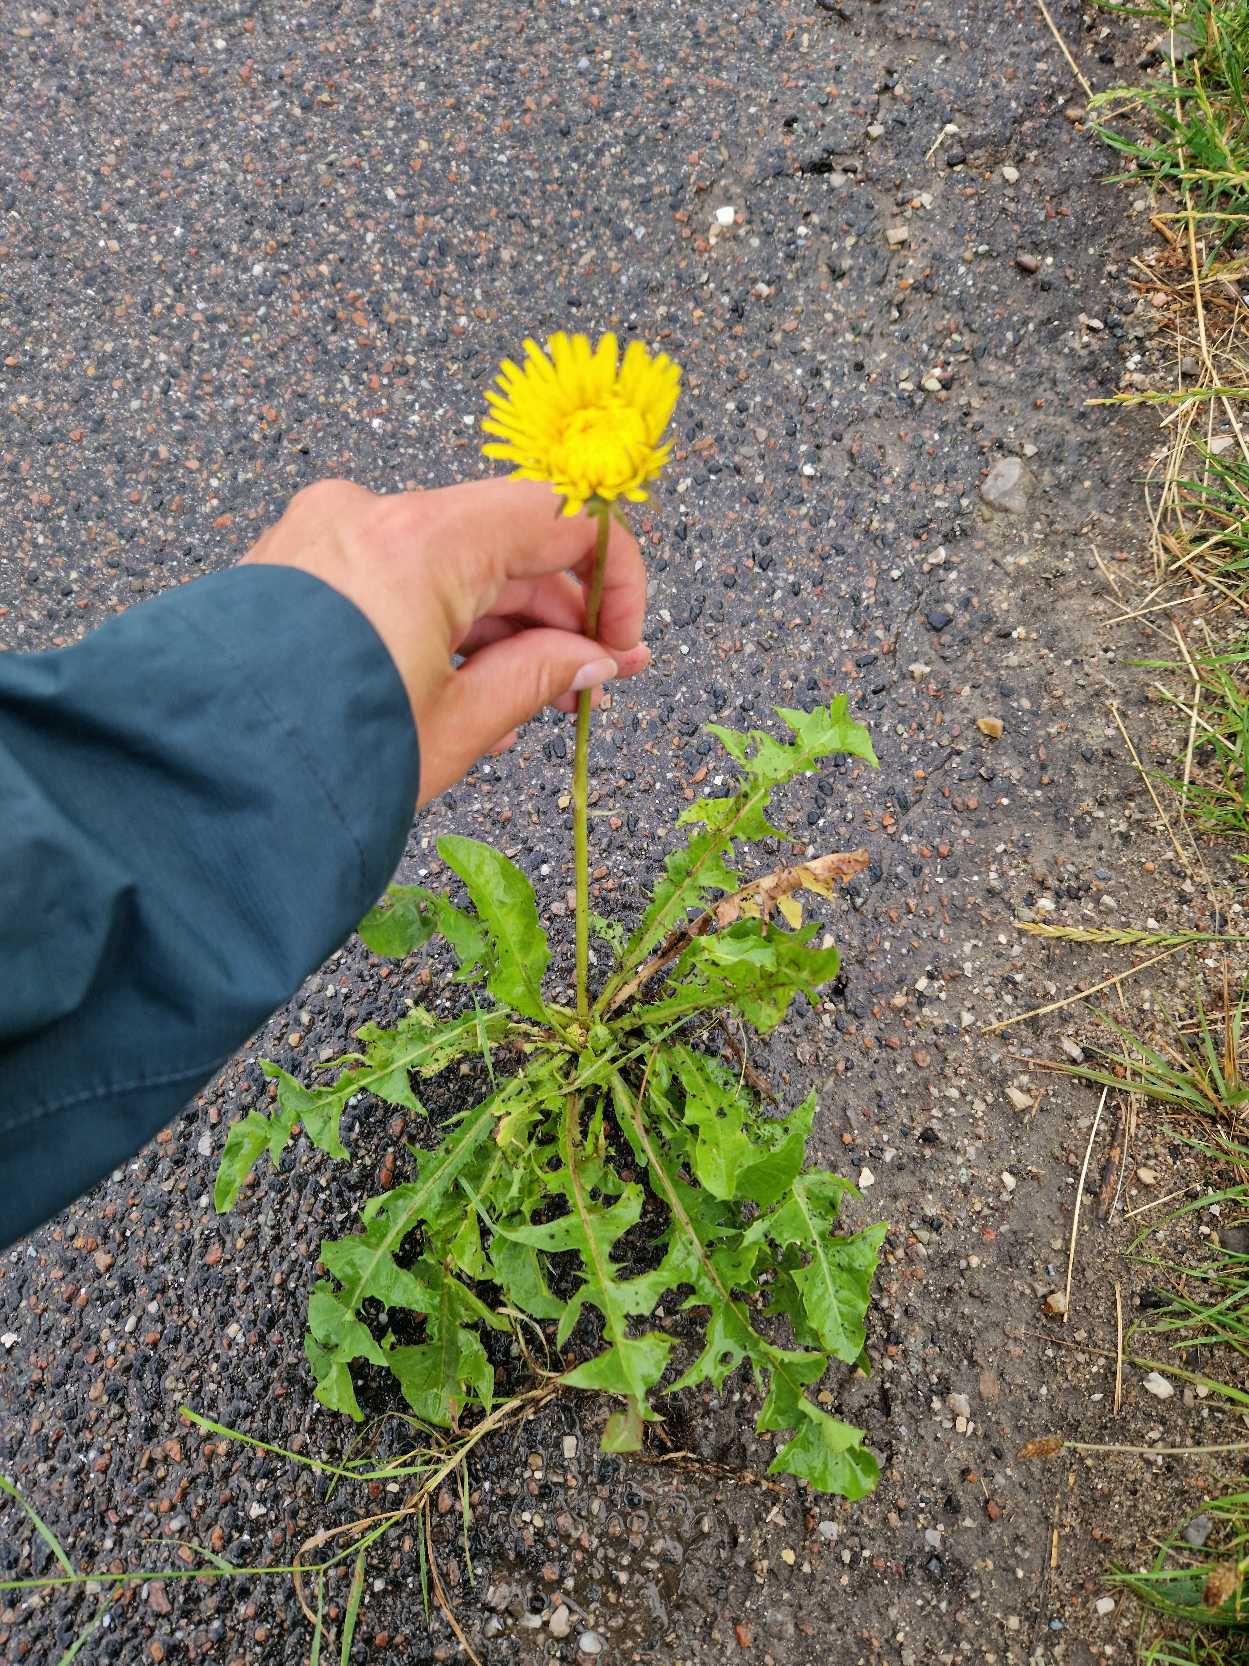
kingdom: Plantae
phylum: Tracheophyta
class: Magnoliopsida
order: Asterales
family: Asteraceae
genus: Taraxacum
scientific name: Taraxacum
